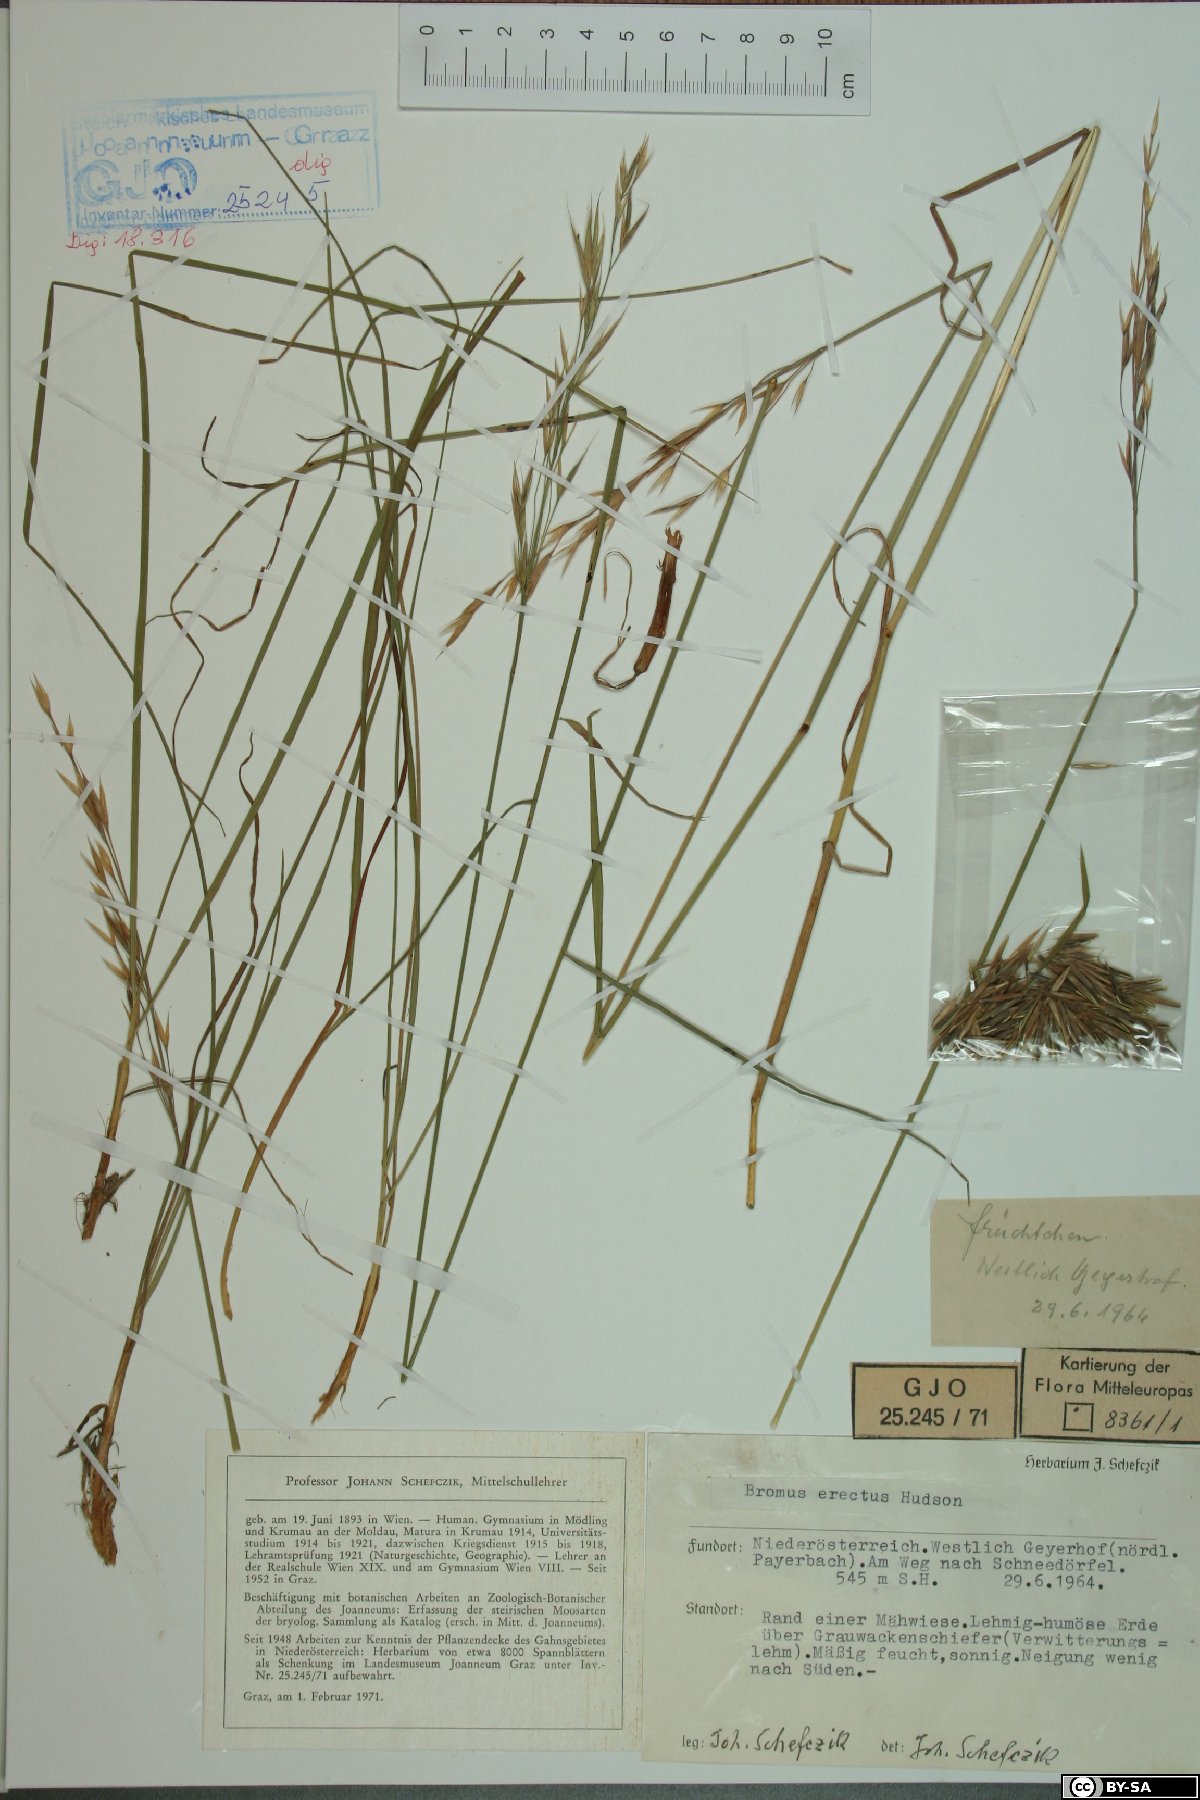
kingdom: Plantae
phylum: Tracheophyta
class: Liliopsida
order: Poales
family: Poaceae
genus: Bromus
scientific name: Bromus erectus
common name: Erect brome
